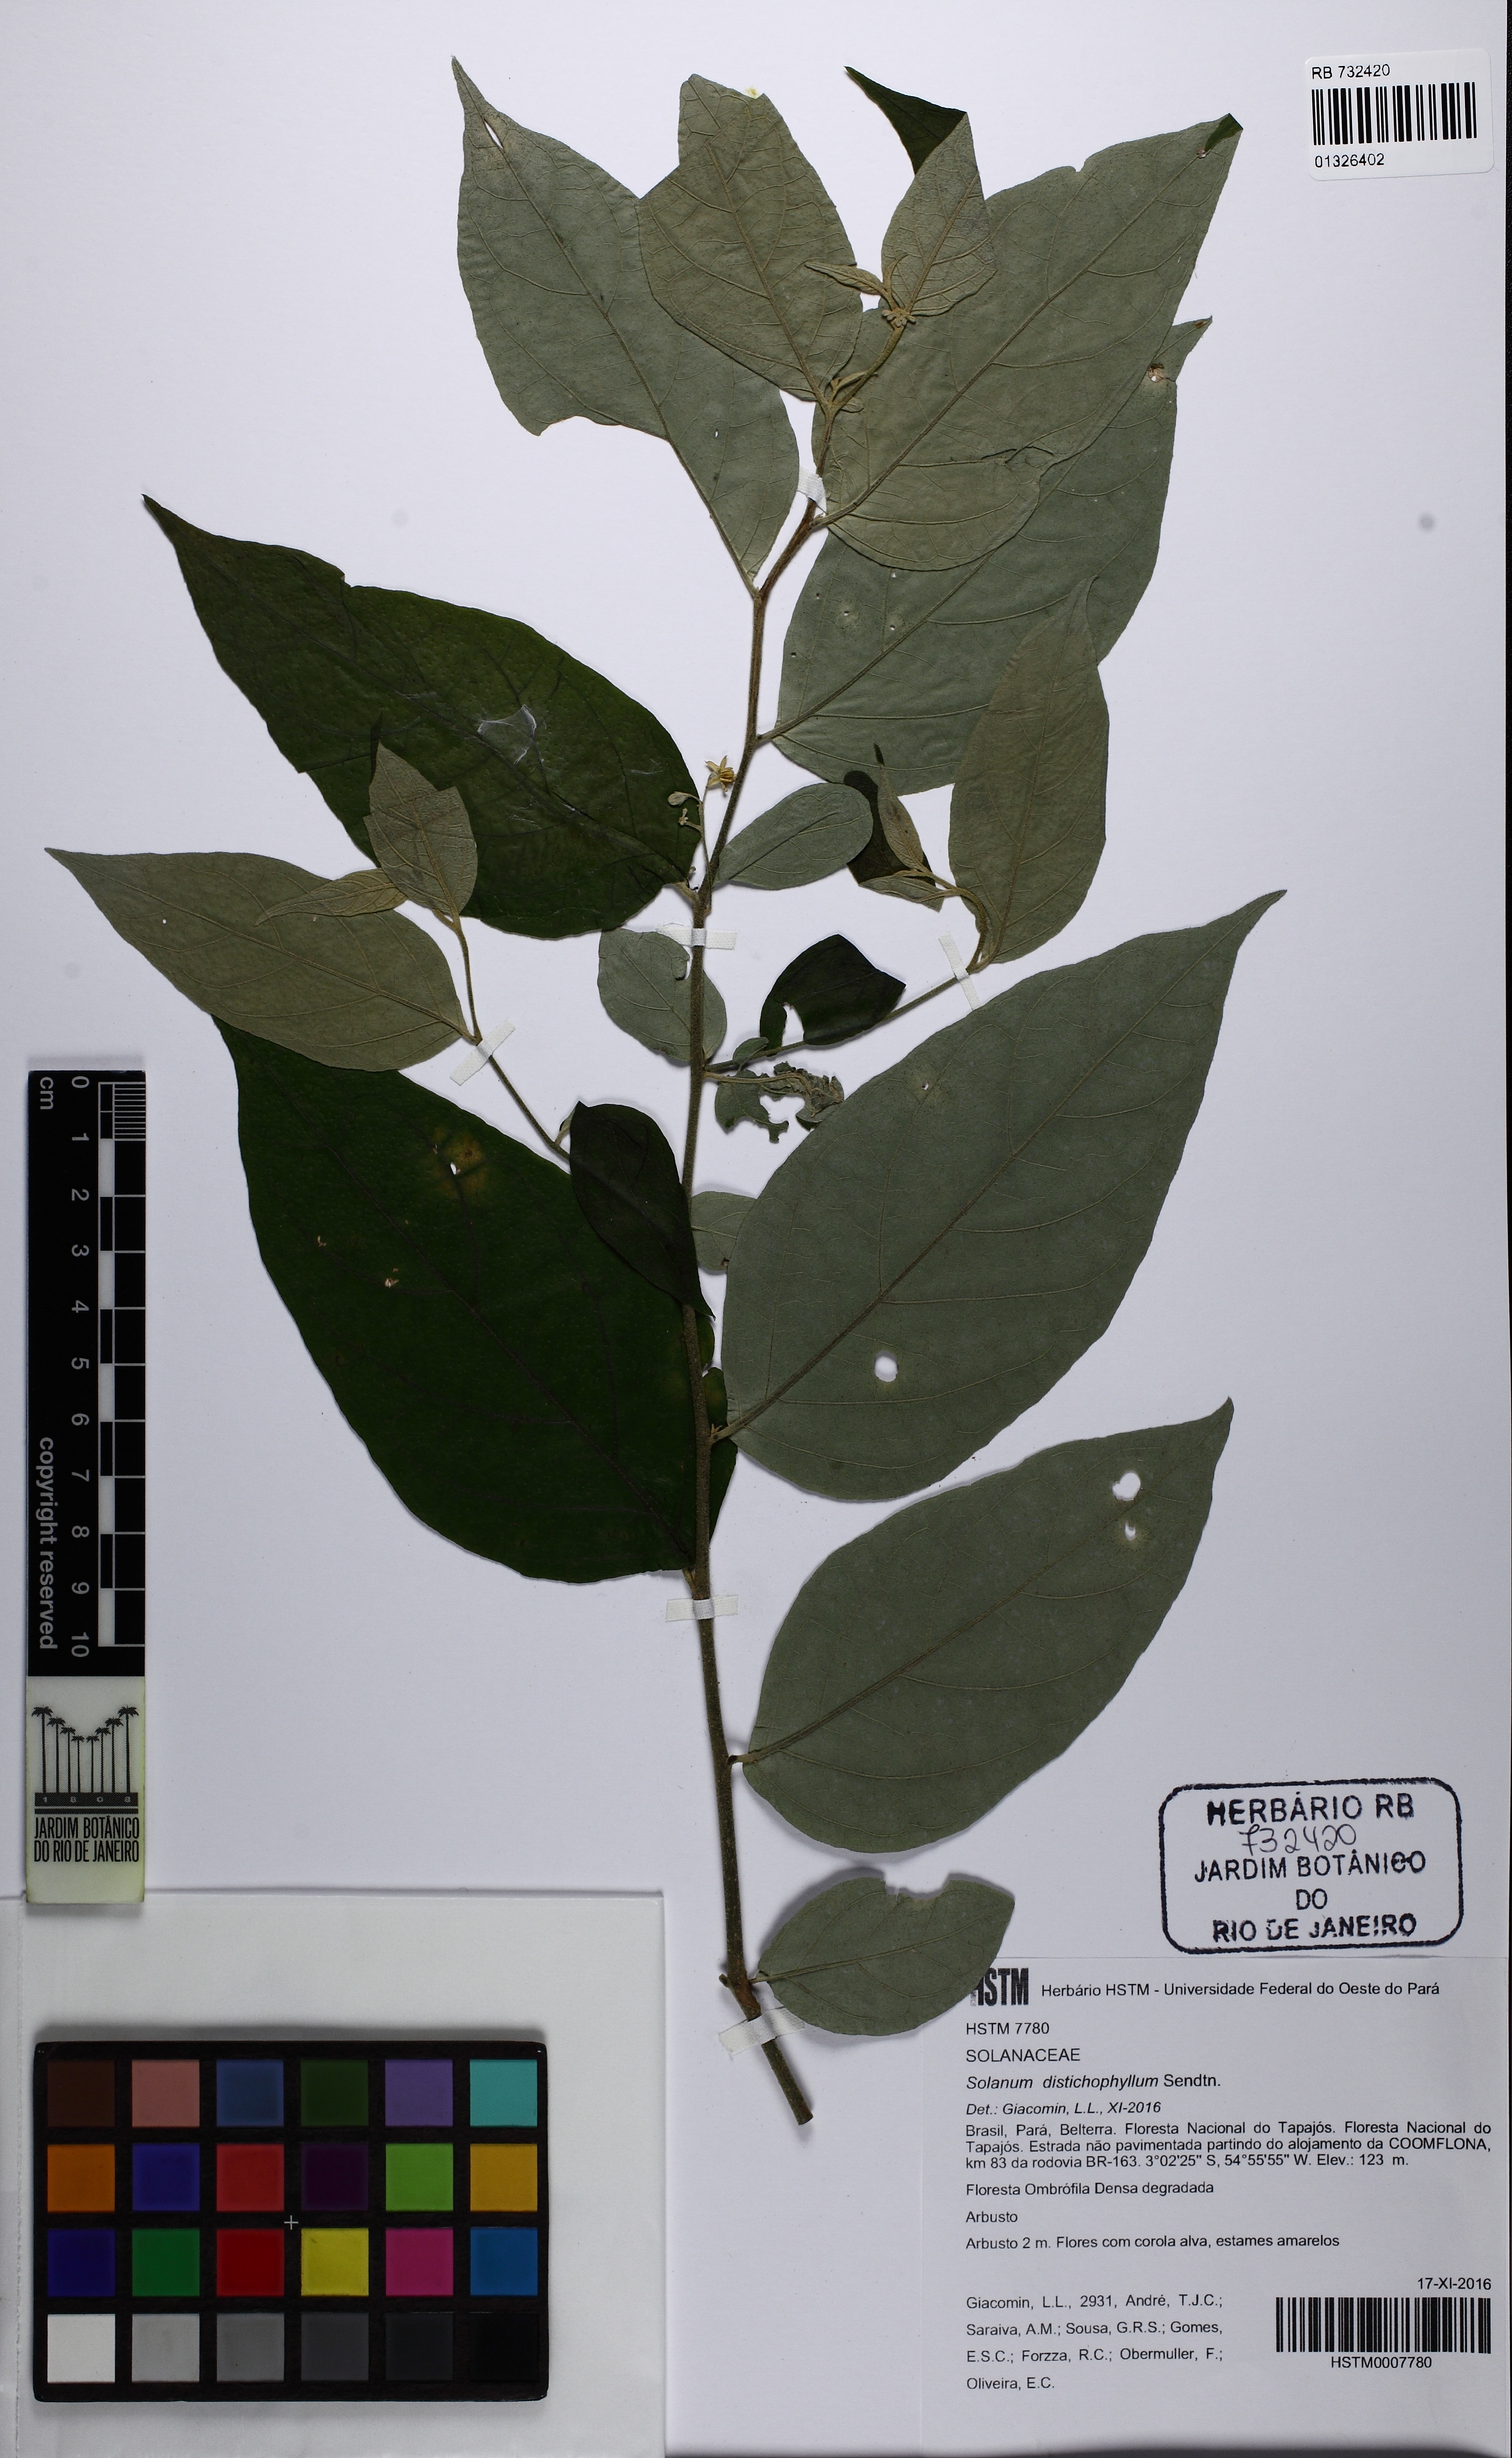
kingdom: Plantae
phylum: Tracheophyta
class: Magnoliopsida
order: Solanales
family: Solanaceae
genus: Solanum
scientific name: Solanum distichophyllum
